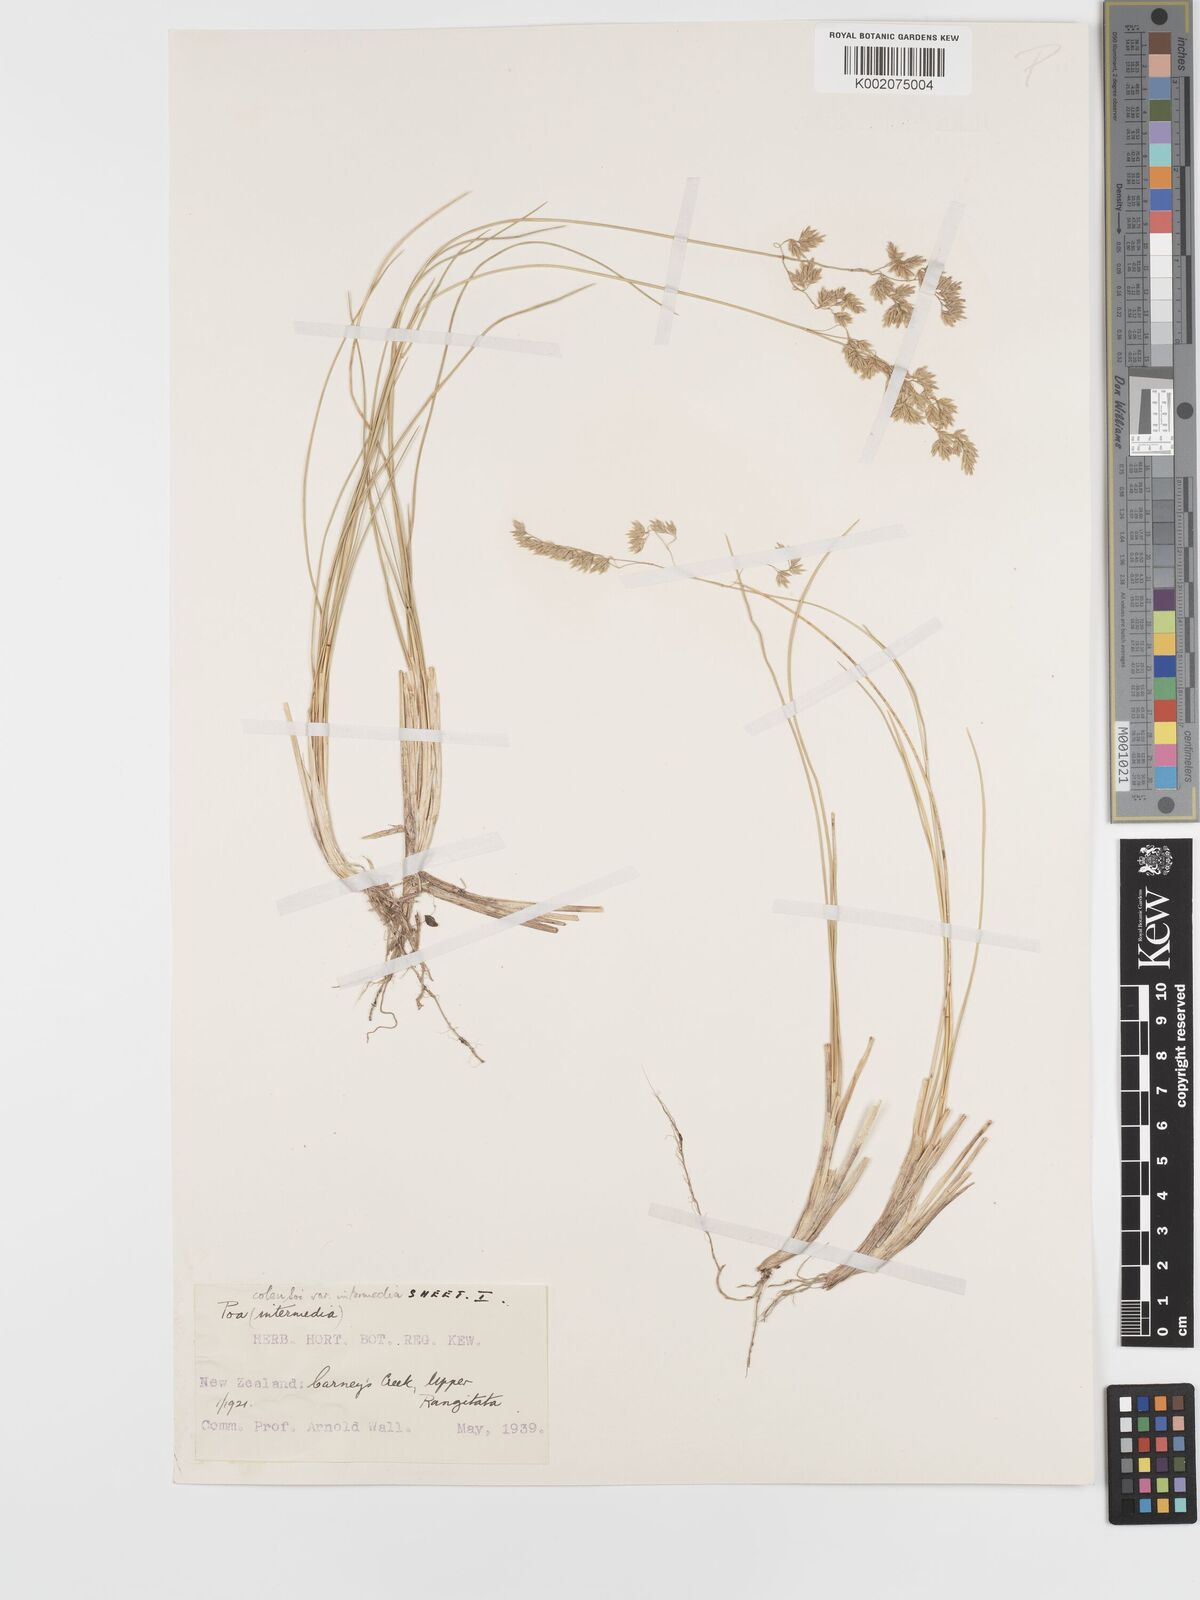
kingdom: Plantae
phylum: Tracheophyta
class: Liliopsida
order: Poales
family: Poaceae
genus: Poa
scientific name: Poa colensoi
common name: Blue tussock
